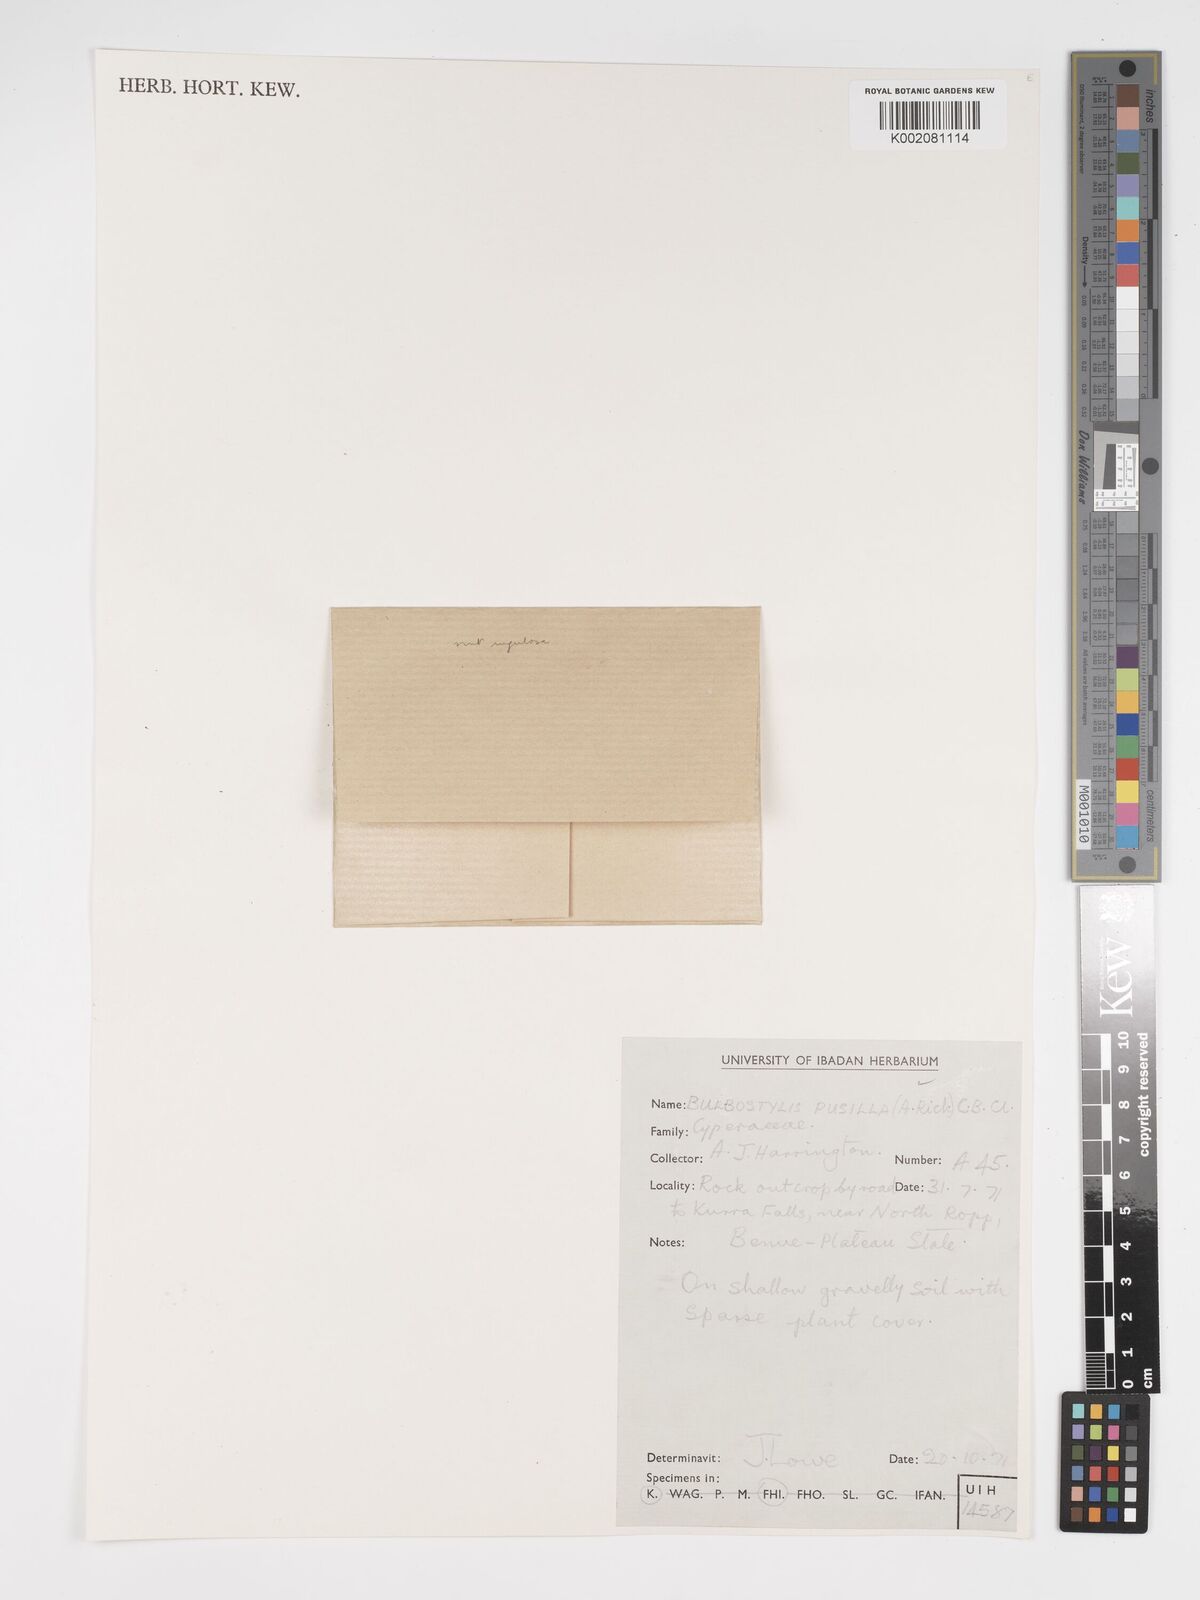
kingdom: Plantae
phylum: Tracheophyta
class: Liliopsida
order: Poales
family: Cyperaceae
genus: Bulbostylis
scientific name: Bulbostylis pusilla
